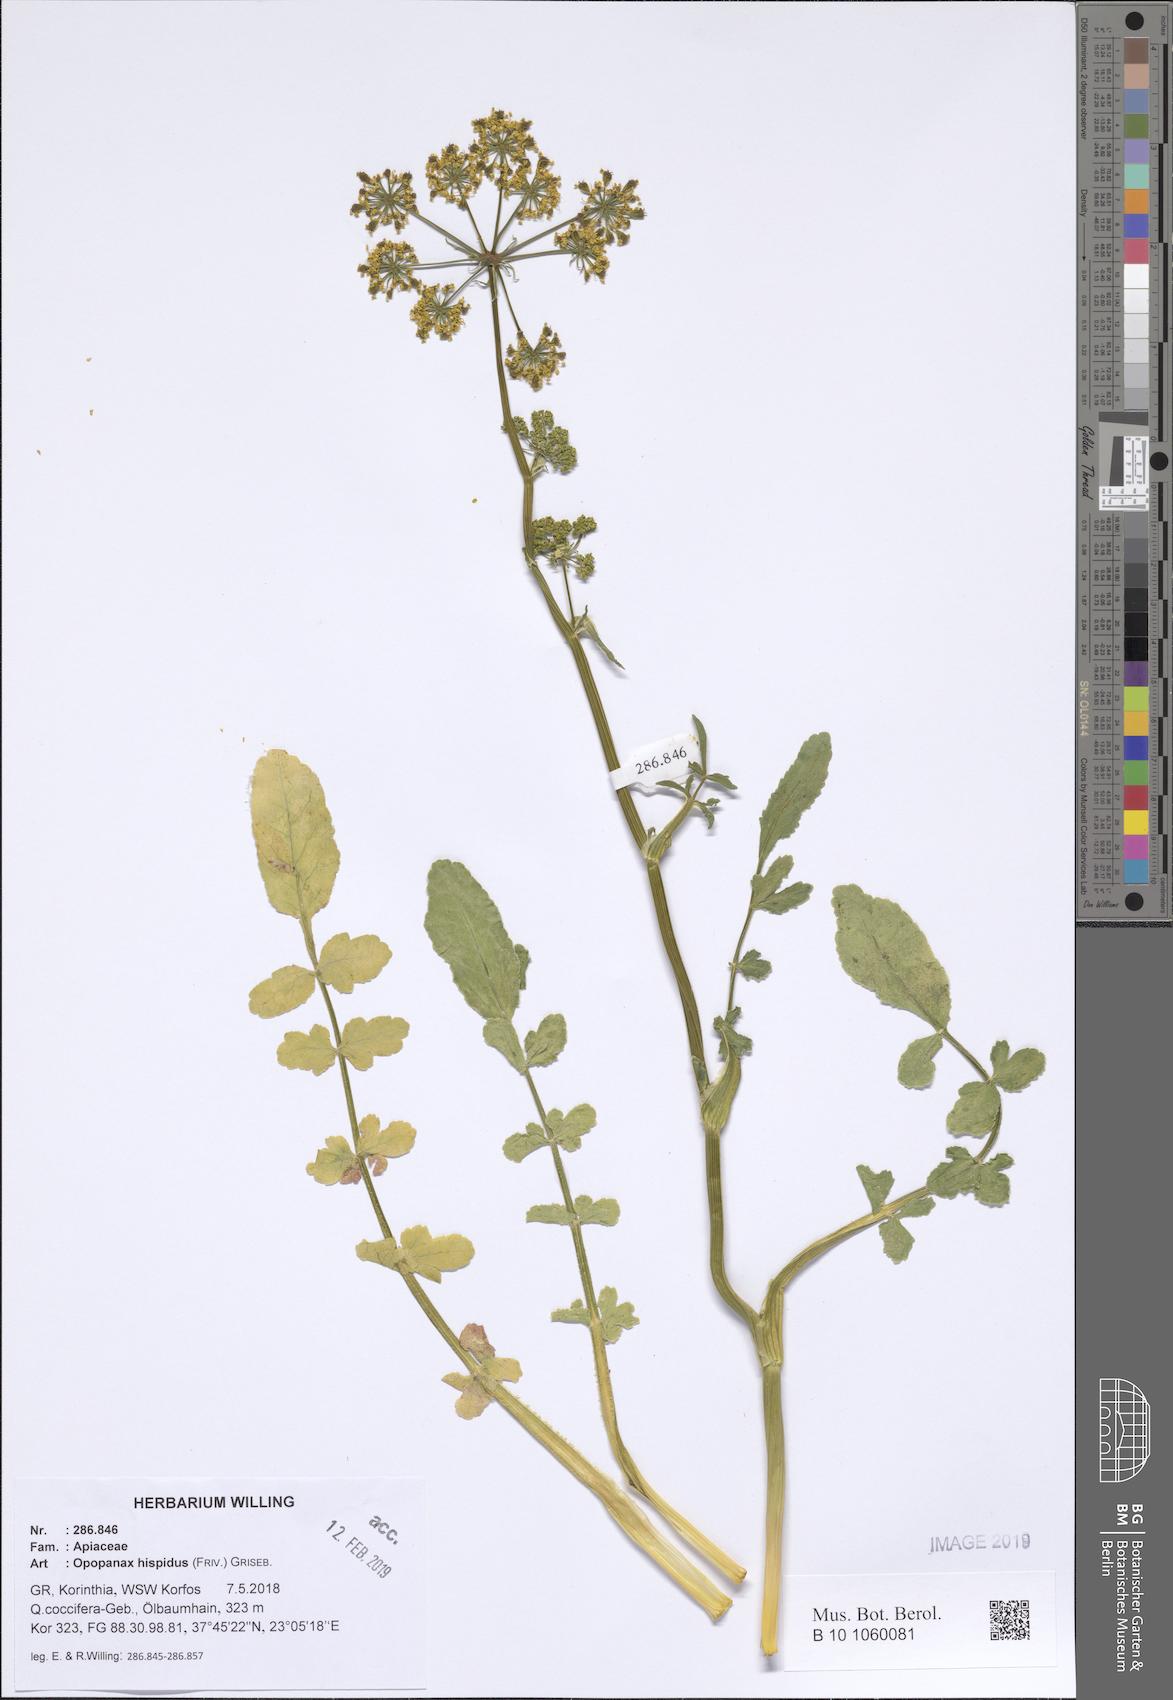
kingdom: Plantae
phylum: Tracheophyta
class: Magnoliopsida
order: Apiales
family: Apiaceae
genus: Opopanax
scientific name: Opopanax hispidus
